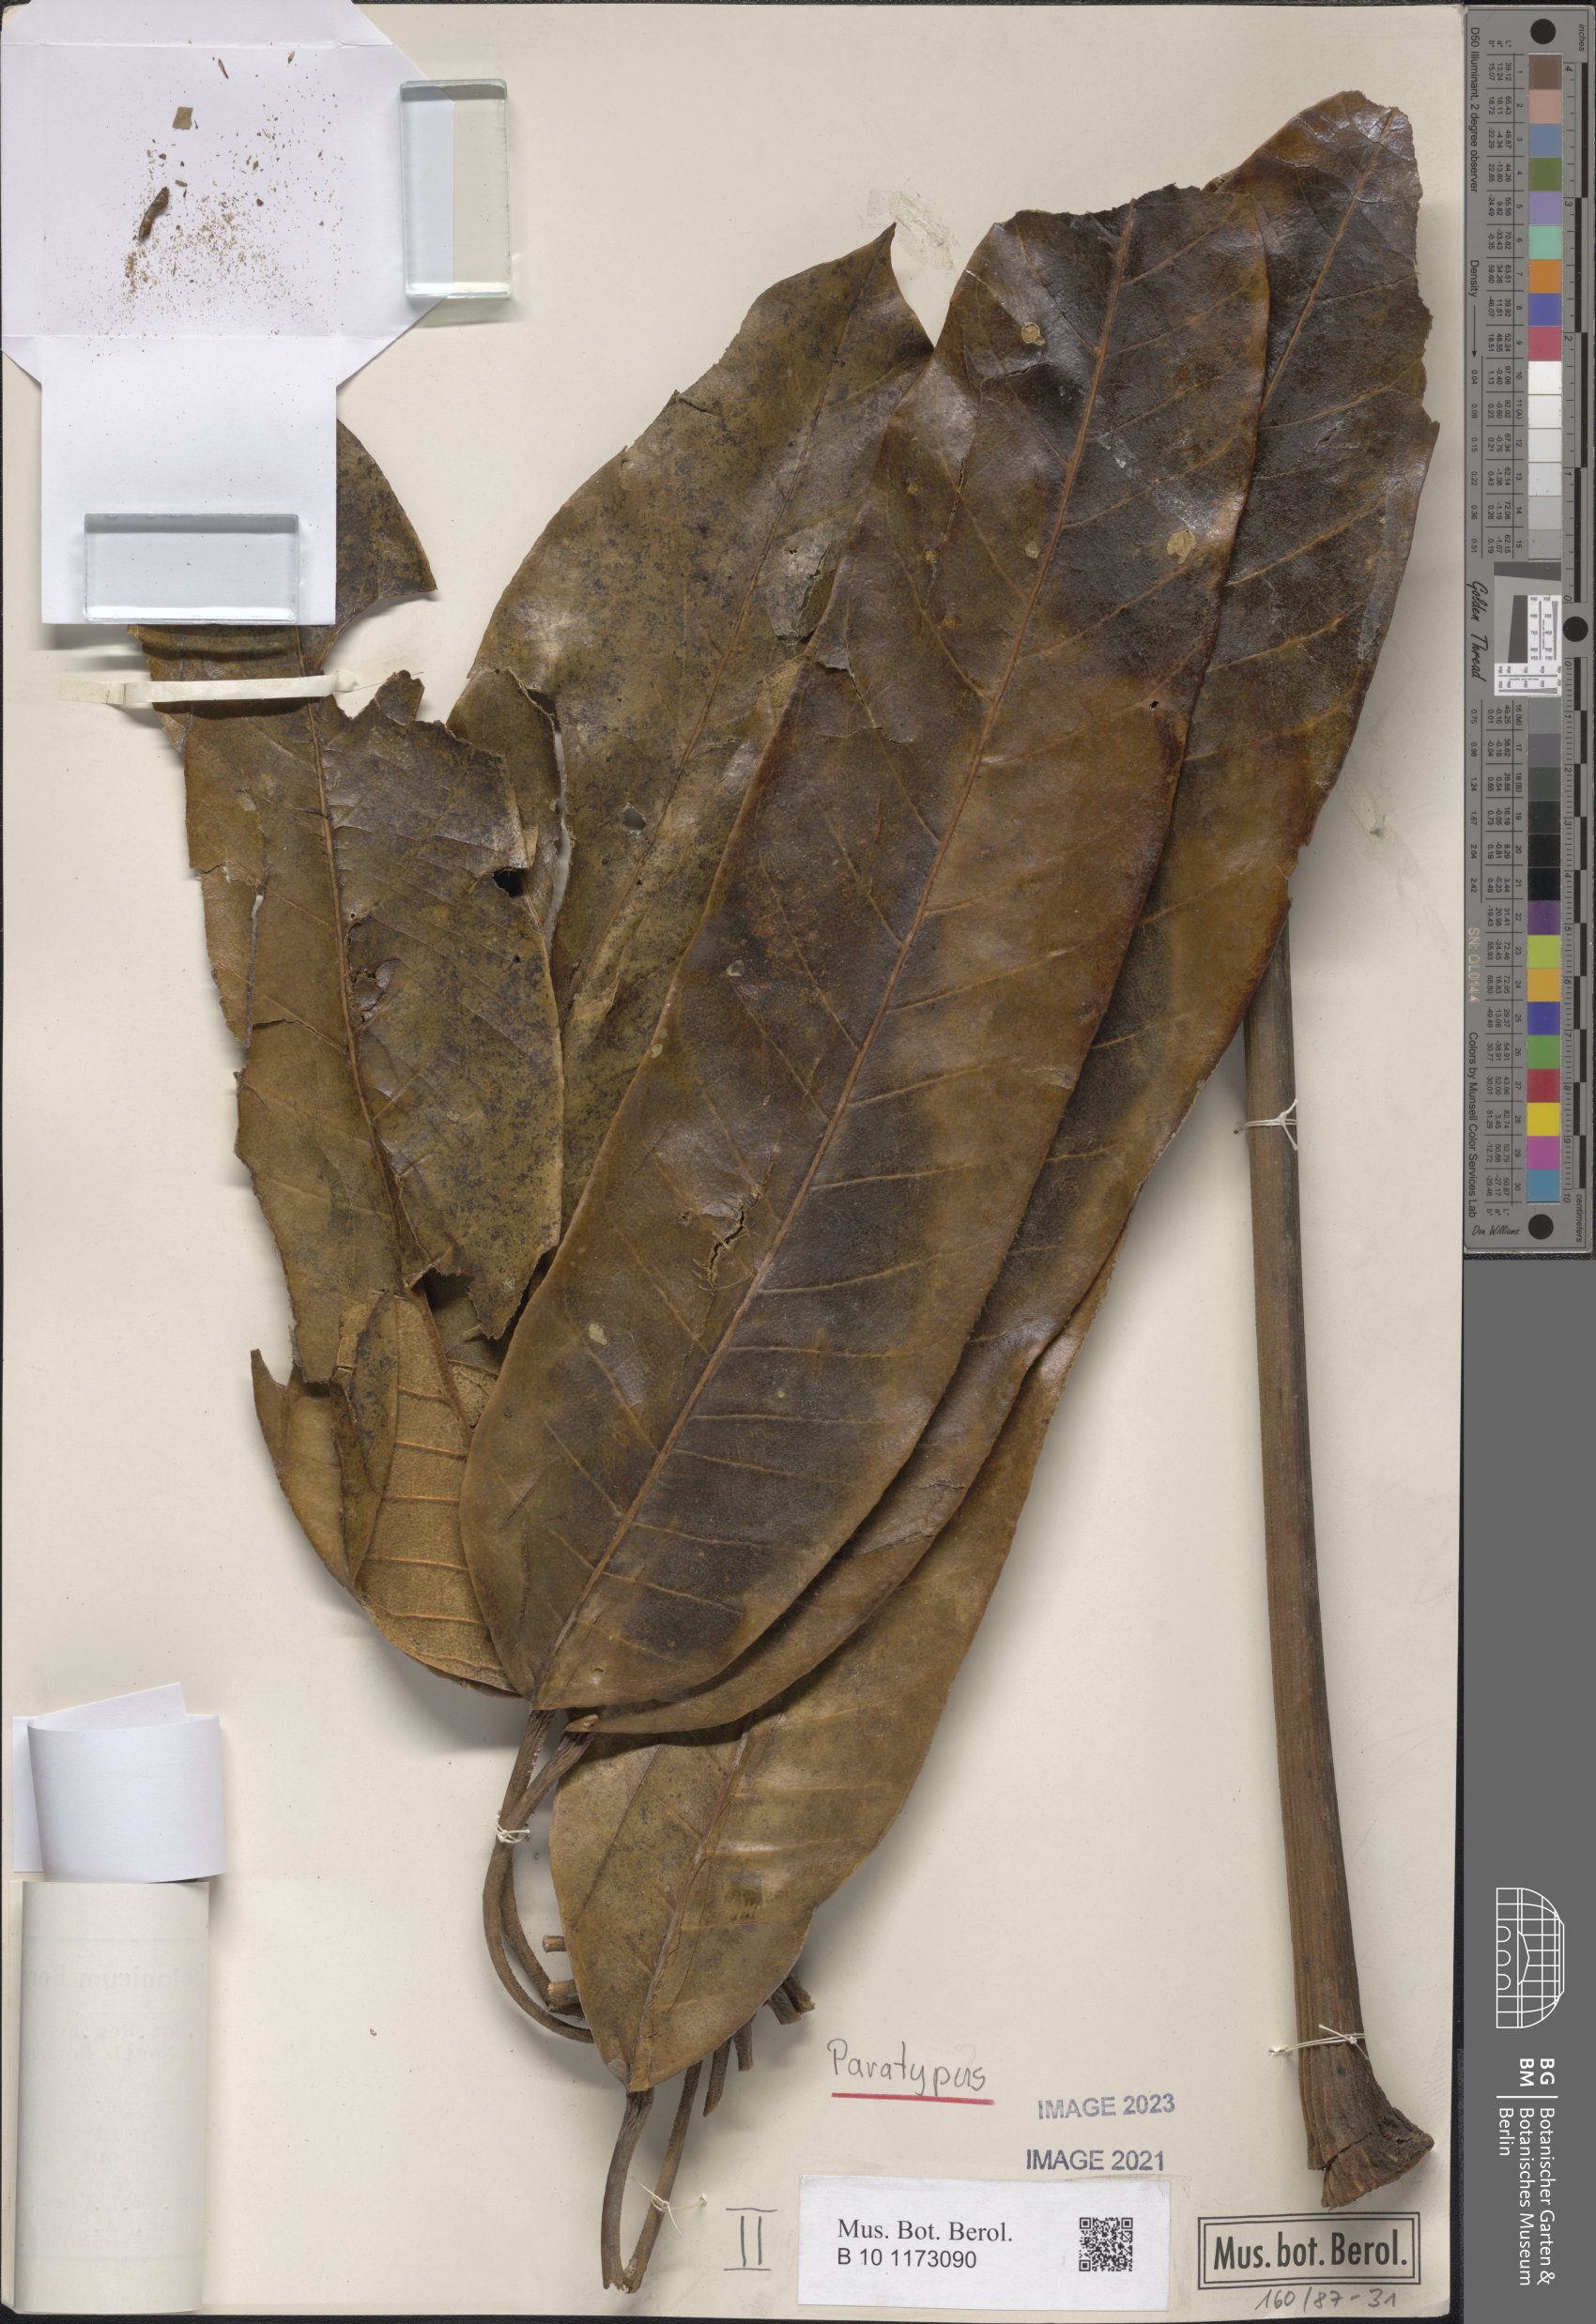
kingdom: Plantae
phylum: Tracheophyta
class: Magnoliopsida
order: Apiales
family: Araliaceae
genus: Heptapleurum
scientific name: Heptapleurum lanatum
